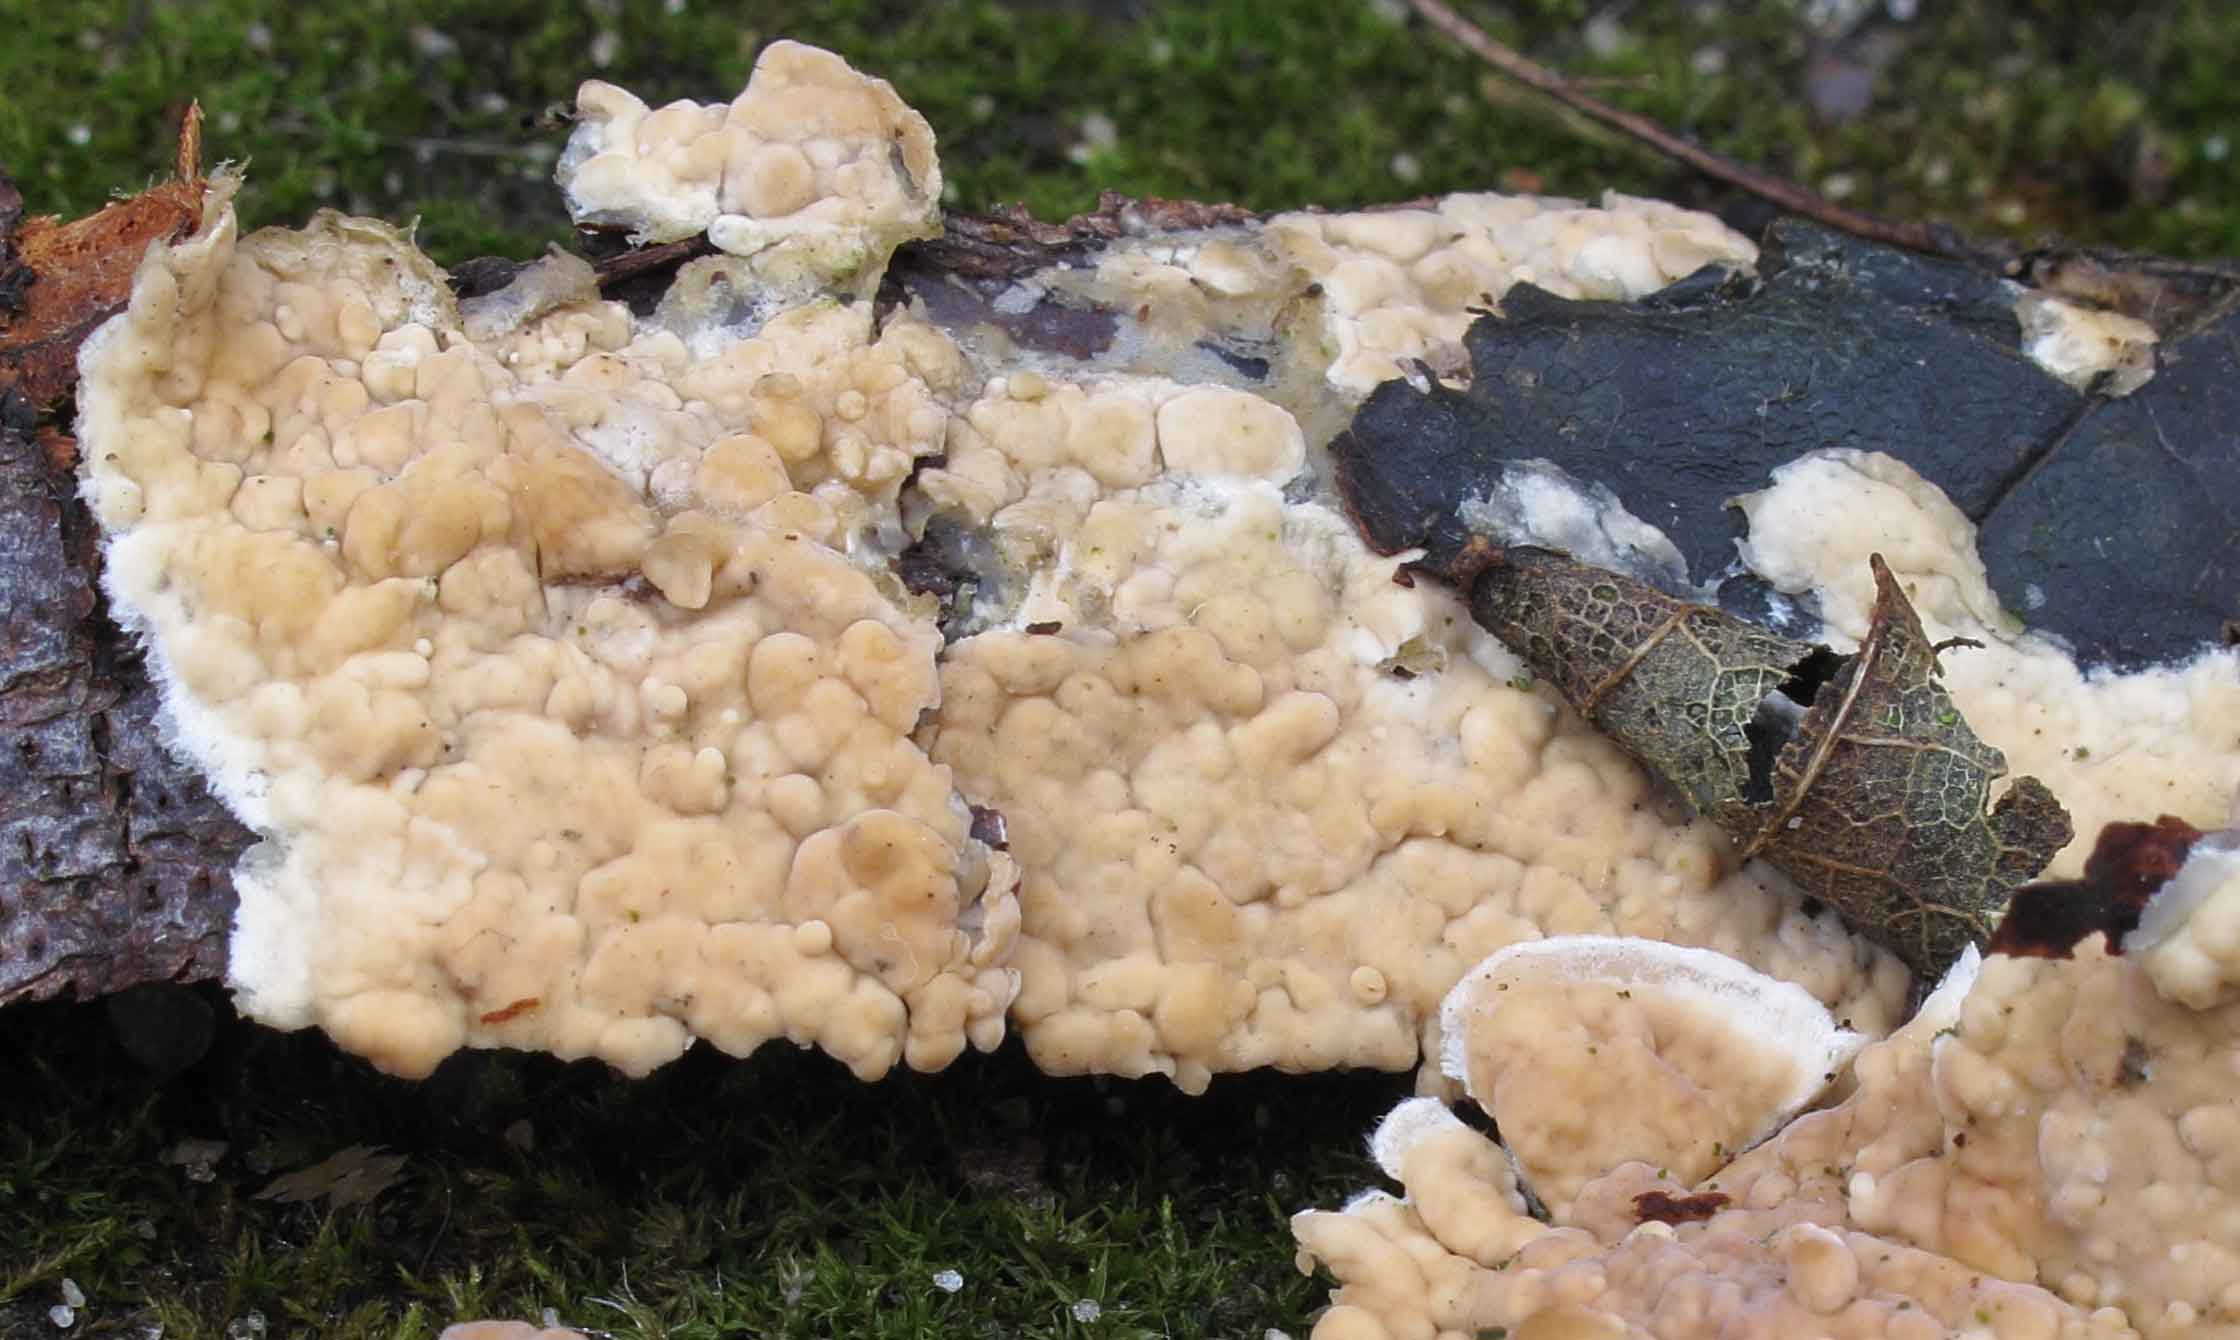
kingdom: Fungi
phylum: Basidiomycota
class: Agaricomycetes
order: Agaricales
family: Physalacriaceae
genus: Cylindrobasidium
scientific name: Cylindrobasidium evolvens
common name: sprækkehinde
